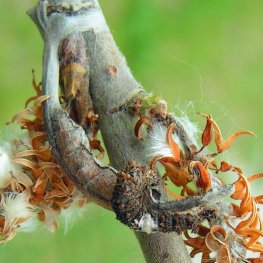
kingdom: Animalia
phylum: Arthropoda
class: Insecta
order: Lepidoptera
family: Nymphalidae
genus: Limenitis
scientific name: Limenitis archippus
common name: Viceroy
